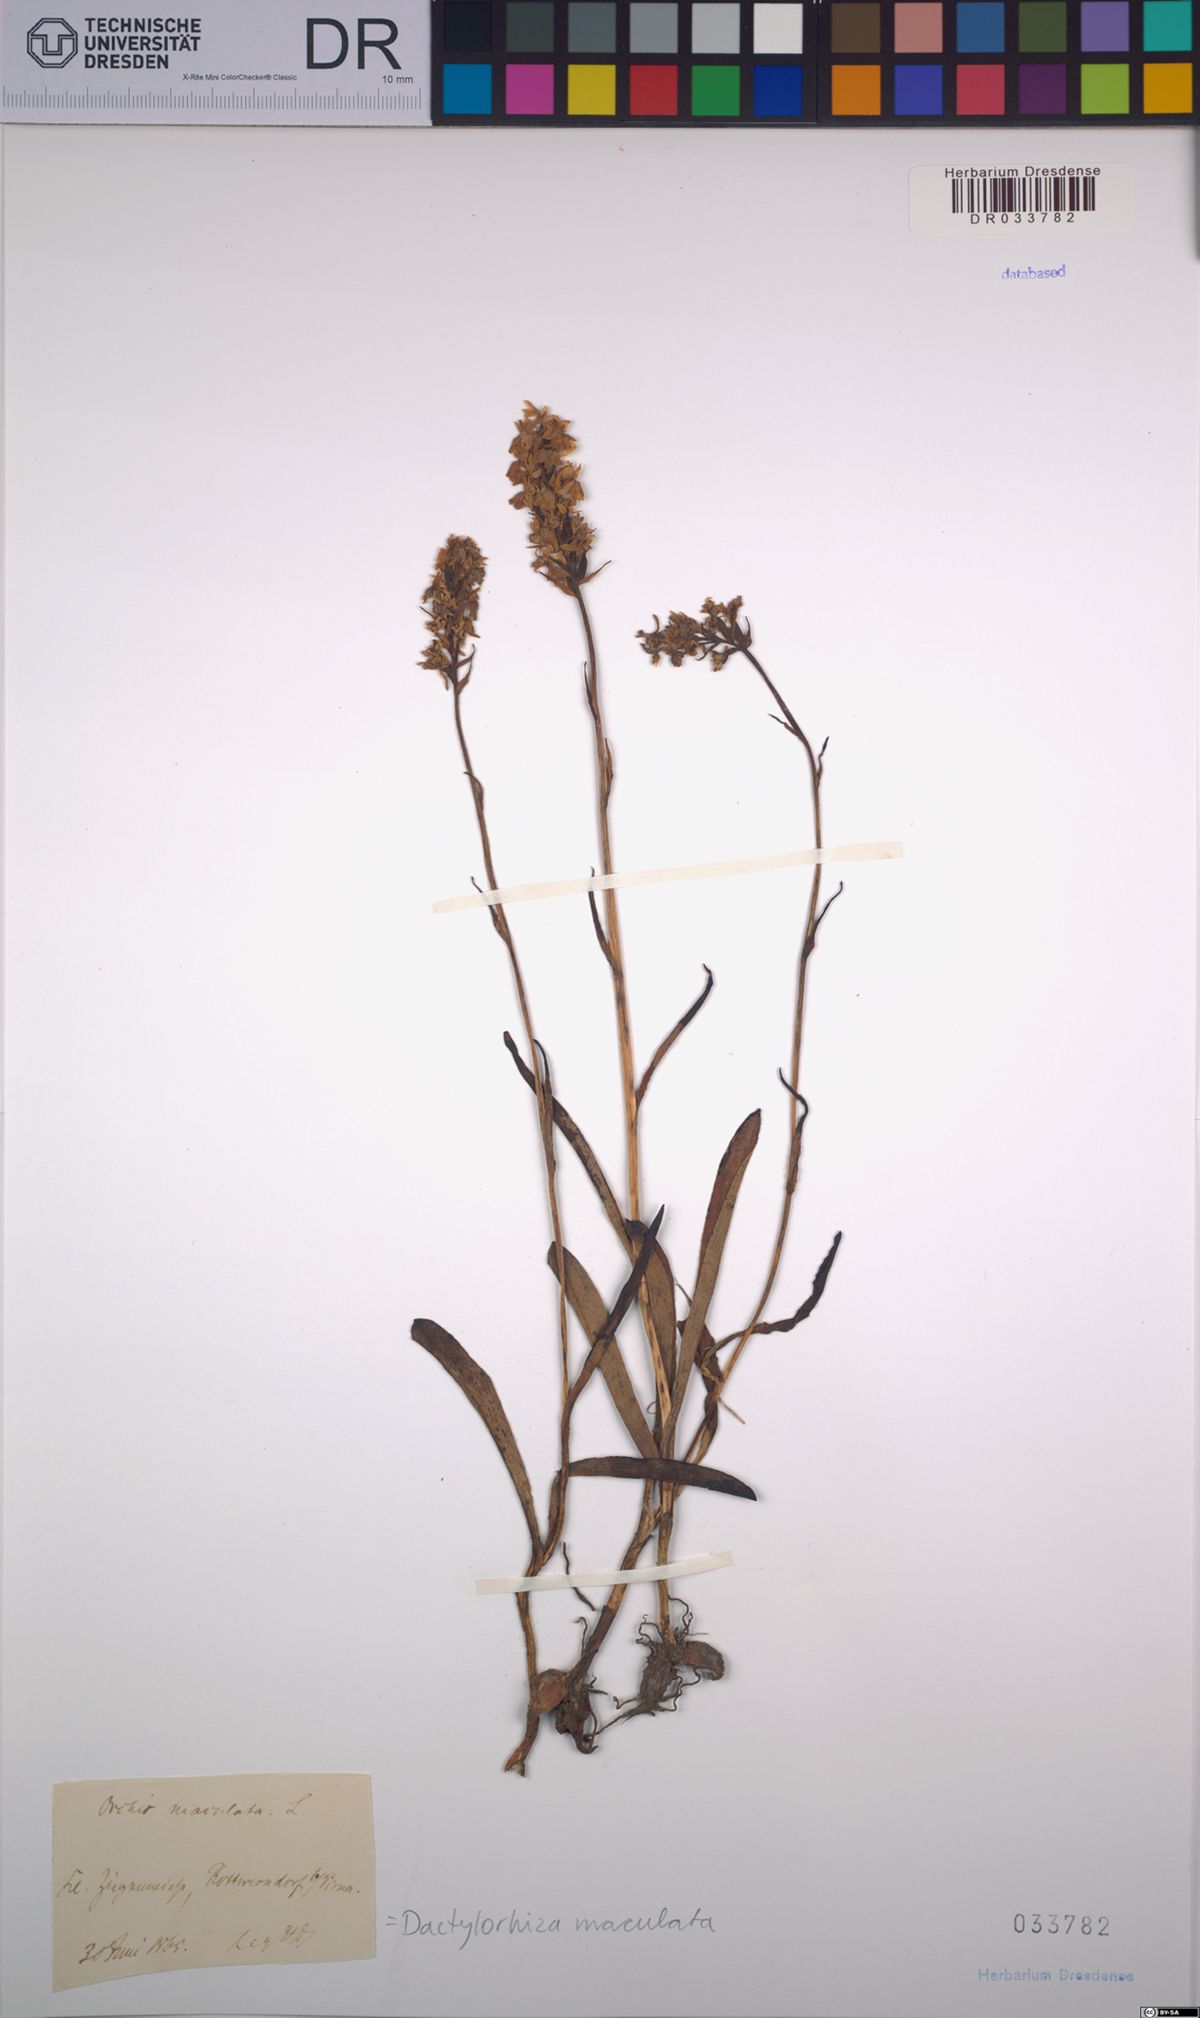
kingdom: Plantae
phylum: Tracheophyta
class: Liliopsida
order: Asparagales
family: Orchidaceae
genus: Dactylorhiza
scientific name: Dactylorhiza maculata
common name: Heath spotted-orchid
